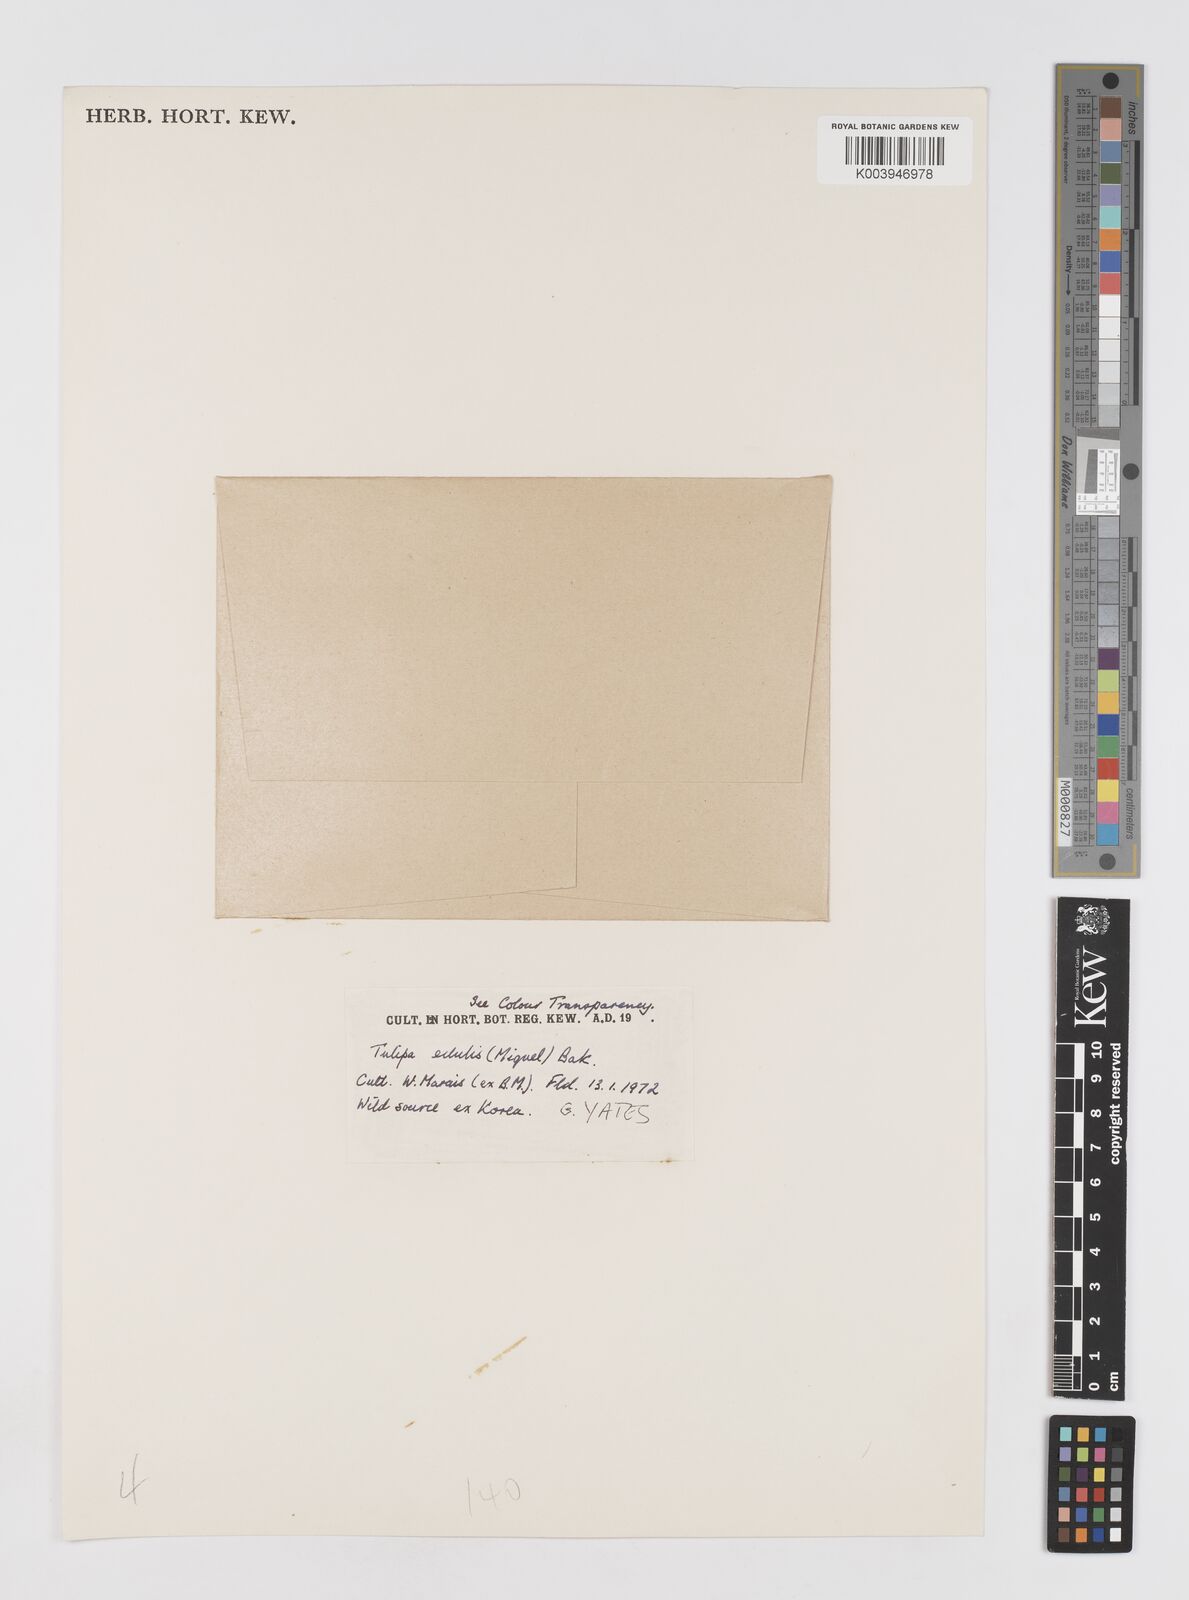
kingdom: Plantae
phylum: Tracheophyta
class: Liliopsida
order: Liliales
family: Liliaceae
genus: Amana
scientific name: Amana edulis
